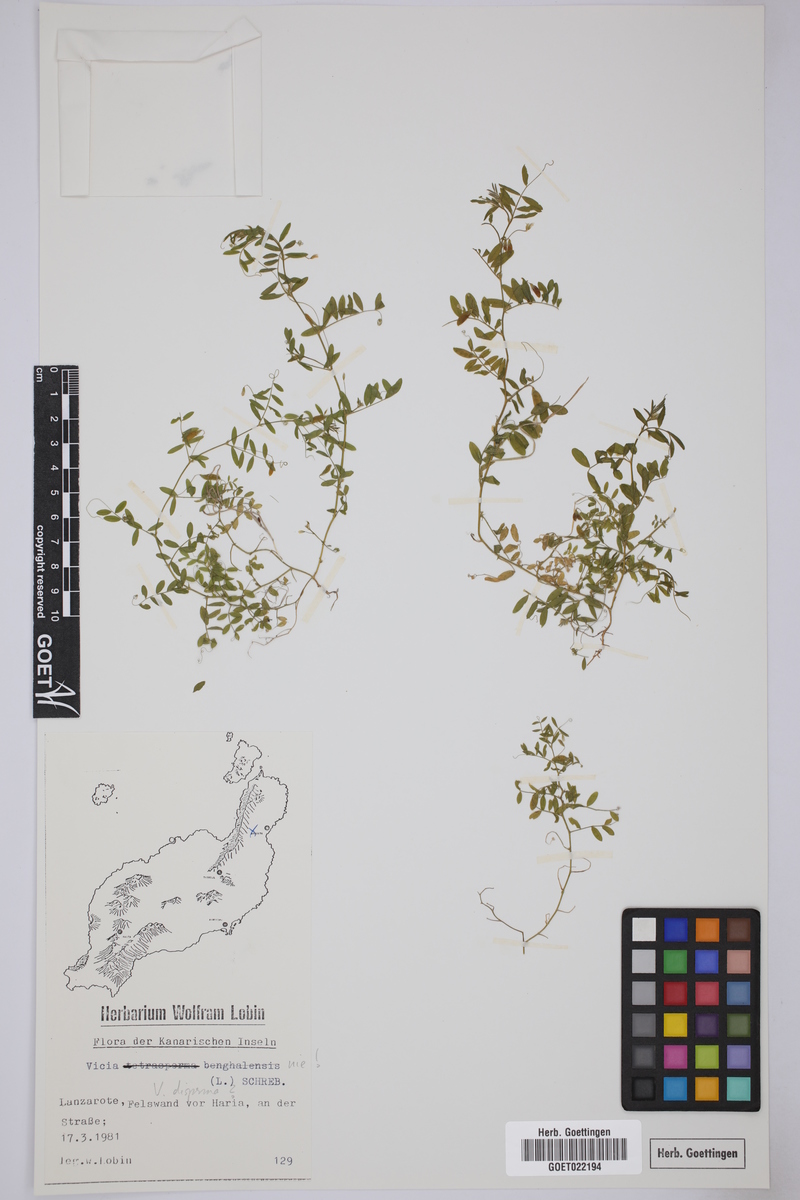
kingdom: Plantae
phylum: Tracheophyta
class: Magnoliopsida
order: Fabales
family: Fabaceae
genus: Vicia
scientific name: Vicia disperma
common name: European vetch
